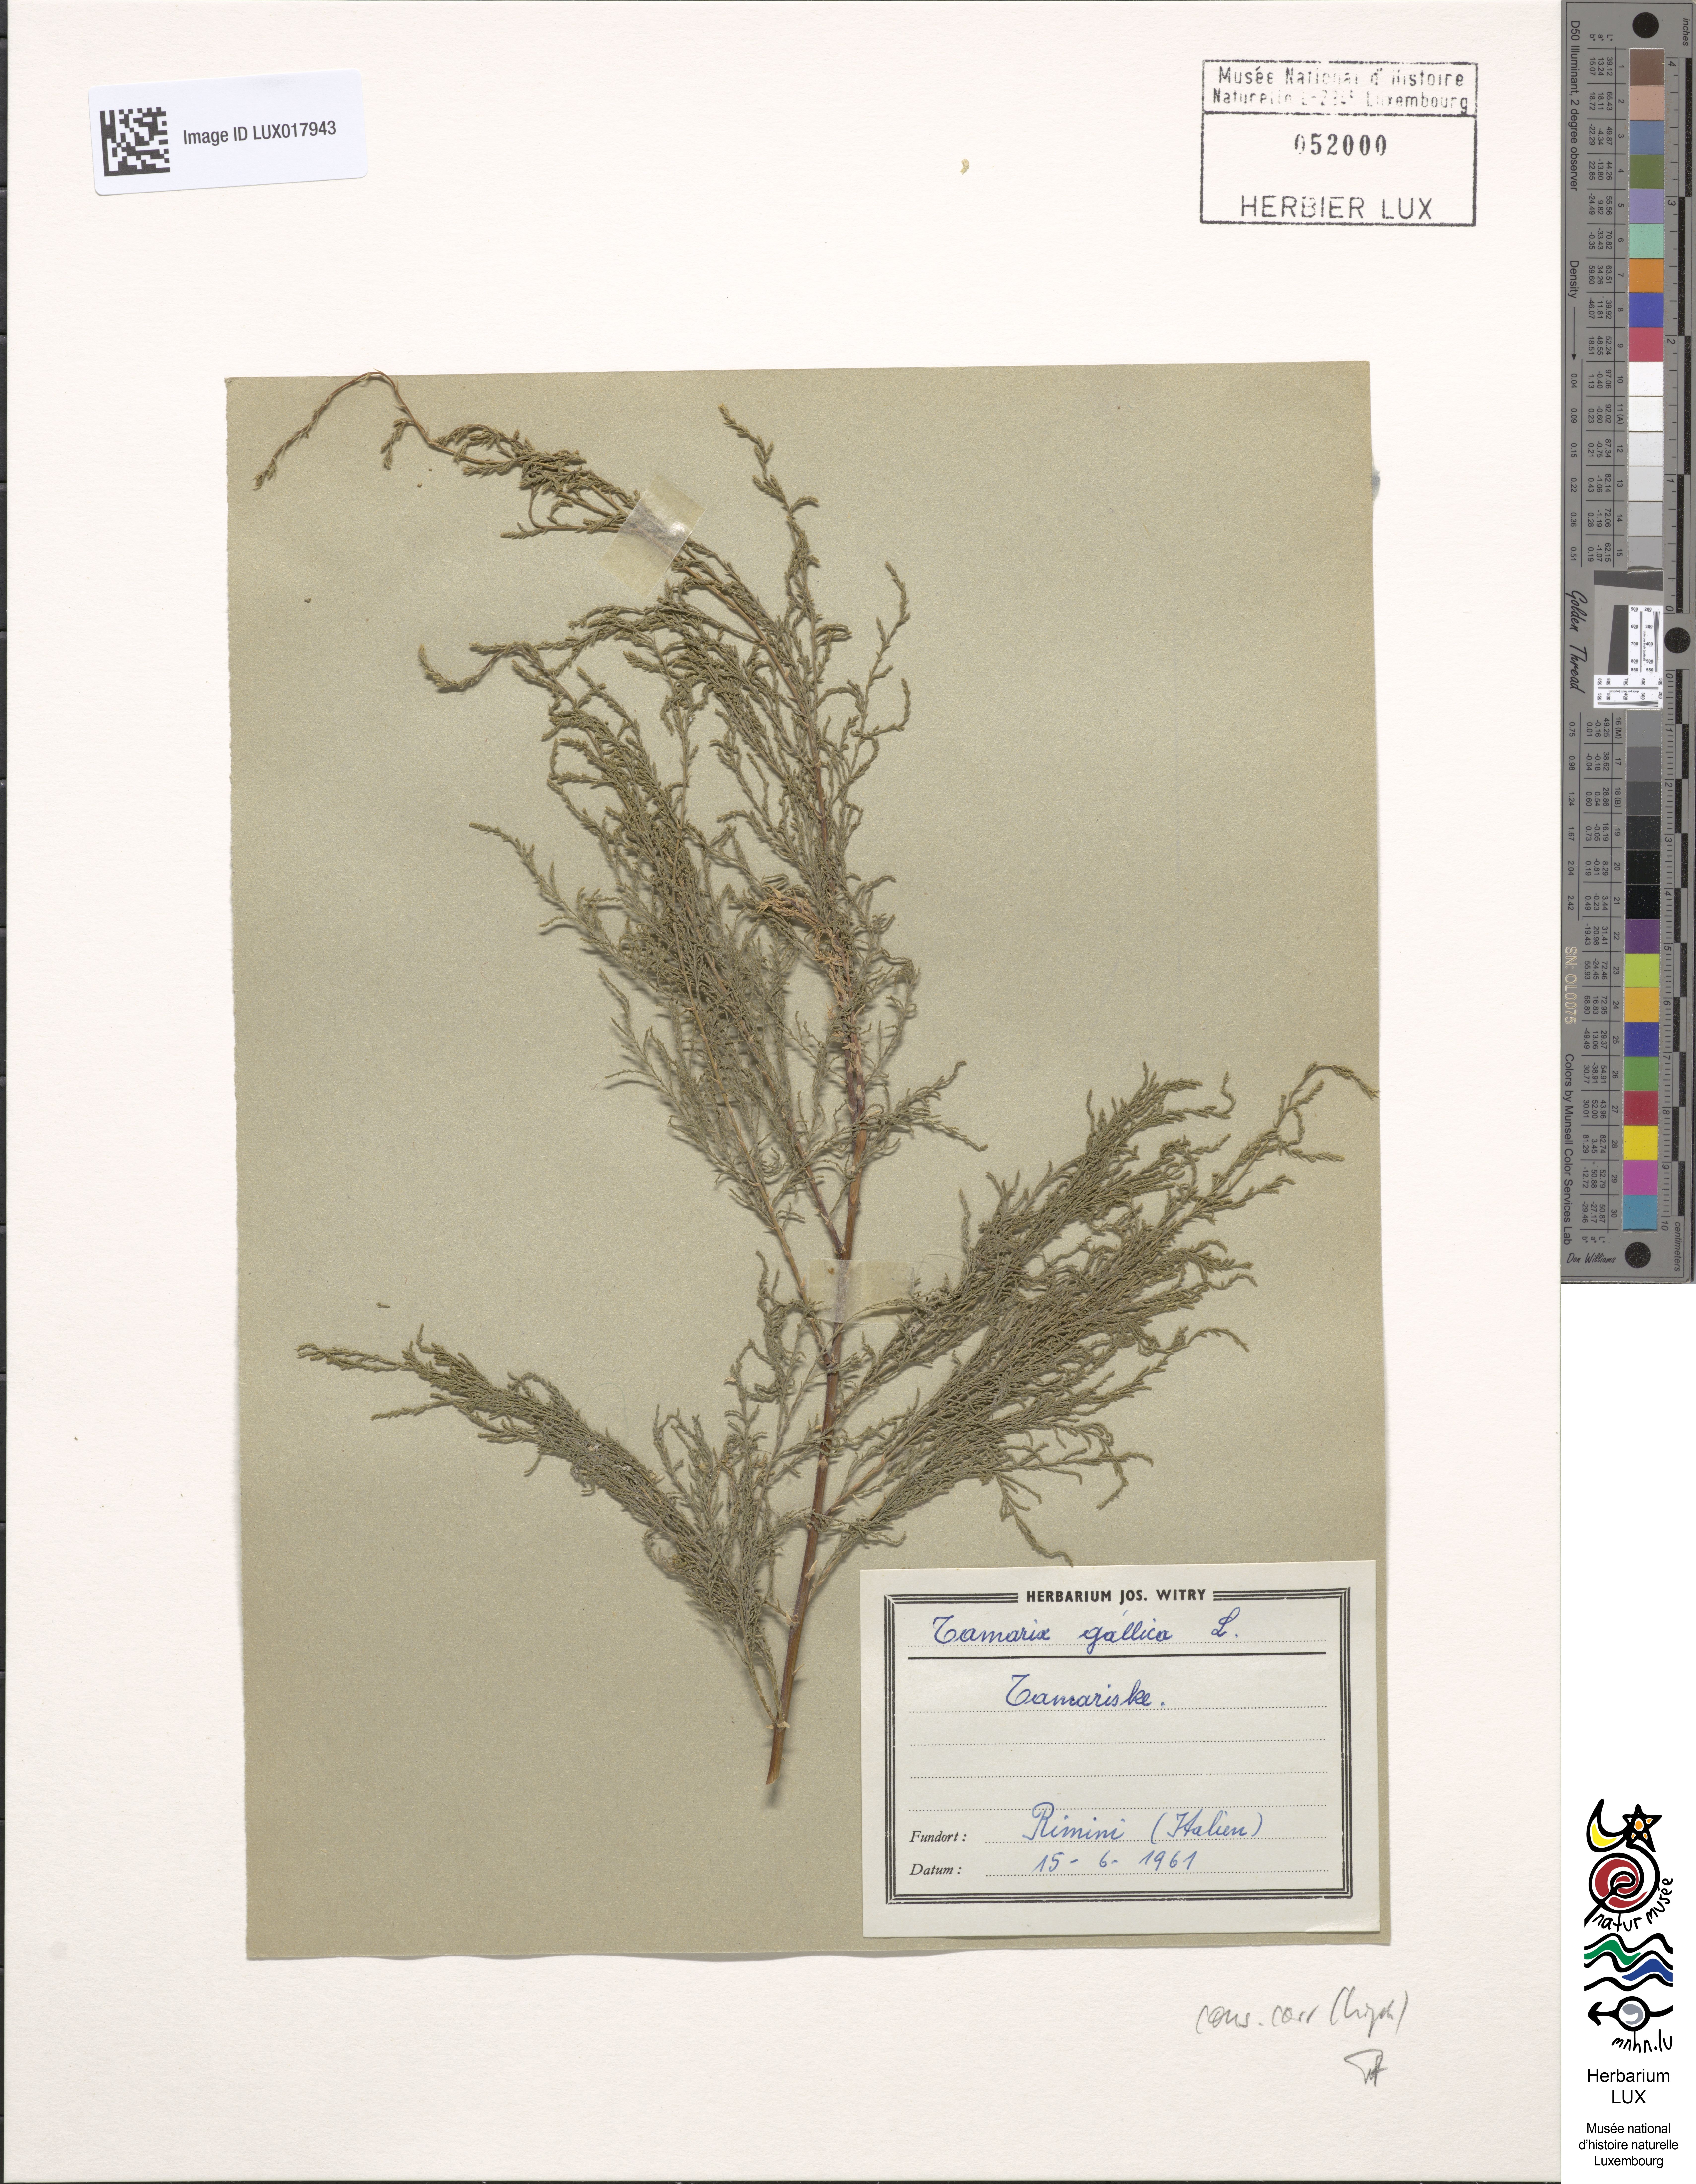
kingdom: Plantae
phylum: Tracheophyta
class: Magnoliopsida
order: Caryophyllales
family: Tamaricaceae
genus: Tamarix
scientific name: Tamarix gallica
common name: Tamarisk
